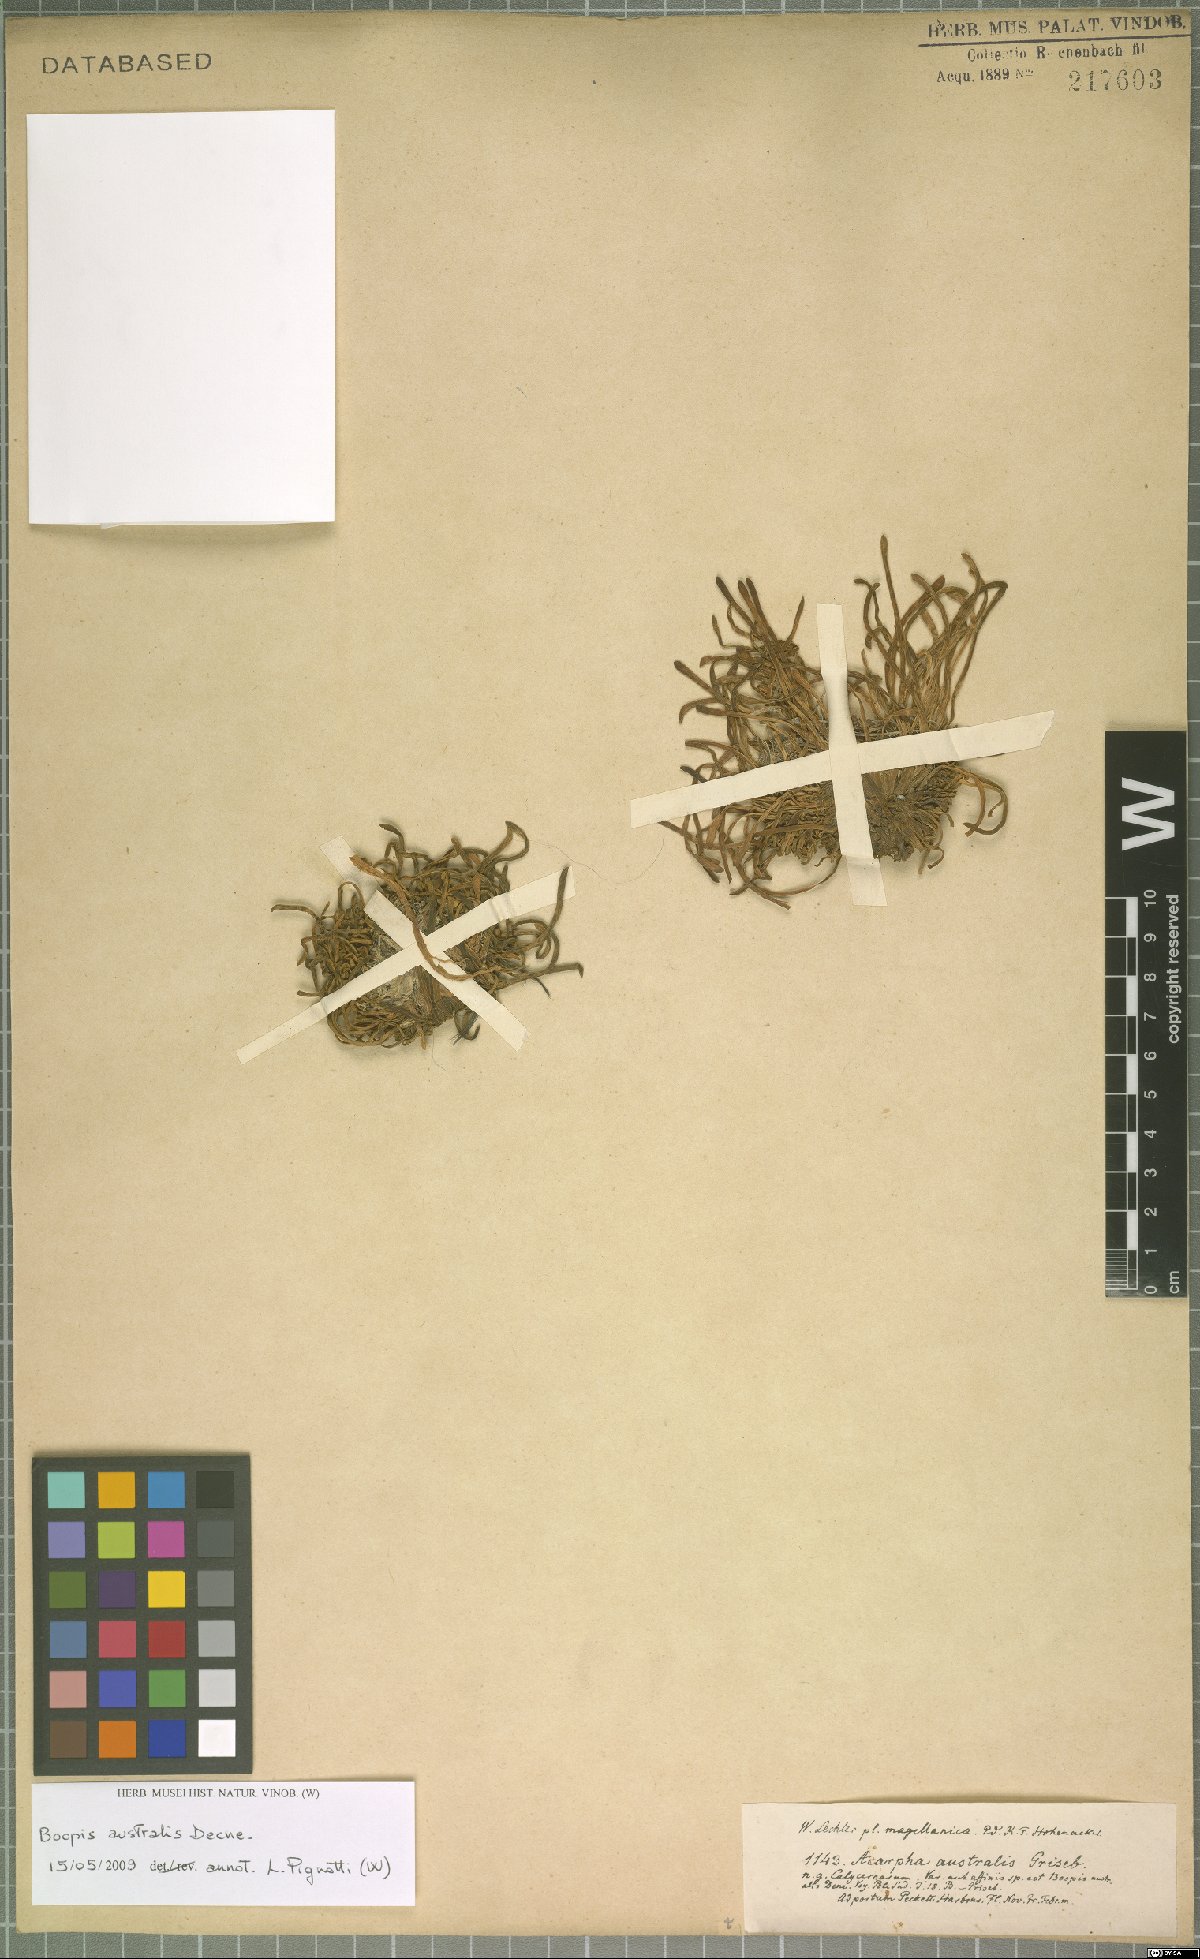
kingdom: Plantae
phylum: Tracheophyta
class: Magnoliopsida
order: Asterales
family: Calyceraceae
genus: Gamocarpha
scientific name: Gamocarpha australis
